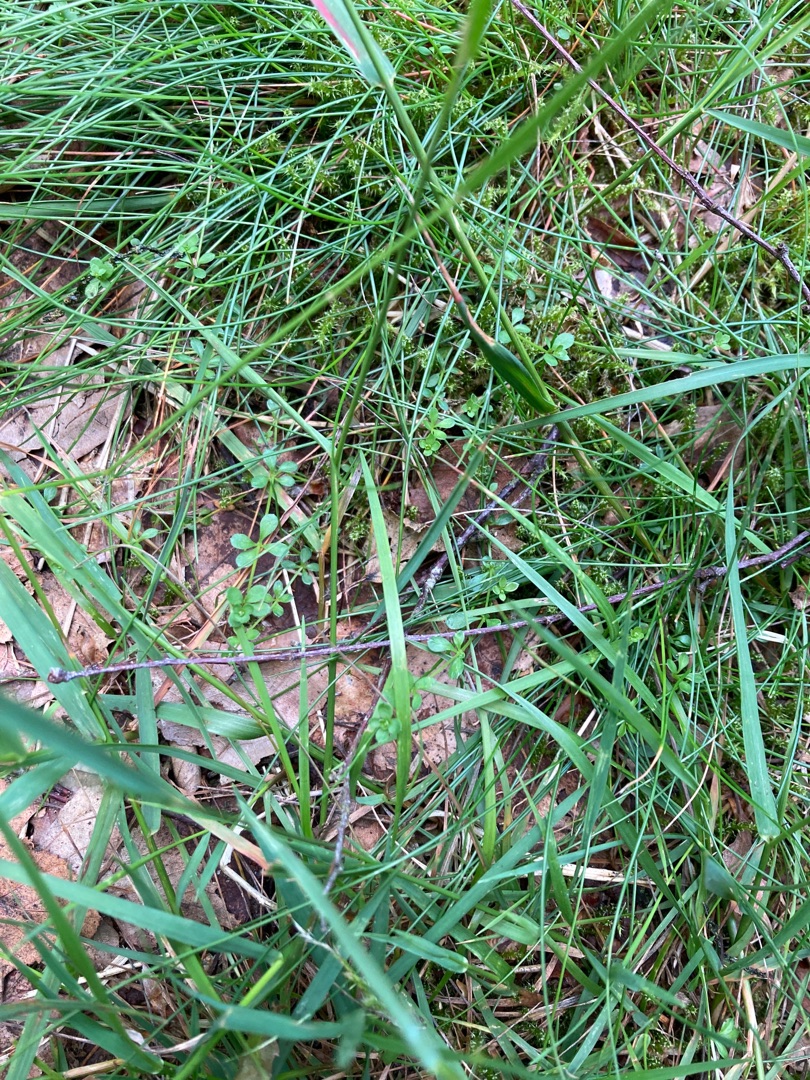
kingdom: Plantae
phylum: Tracheophyta
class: Magnoliopsida
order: Gentianales
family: Rubiaceae
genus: Galium
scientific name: Galium saxatile
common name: Lyng-snerre
